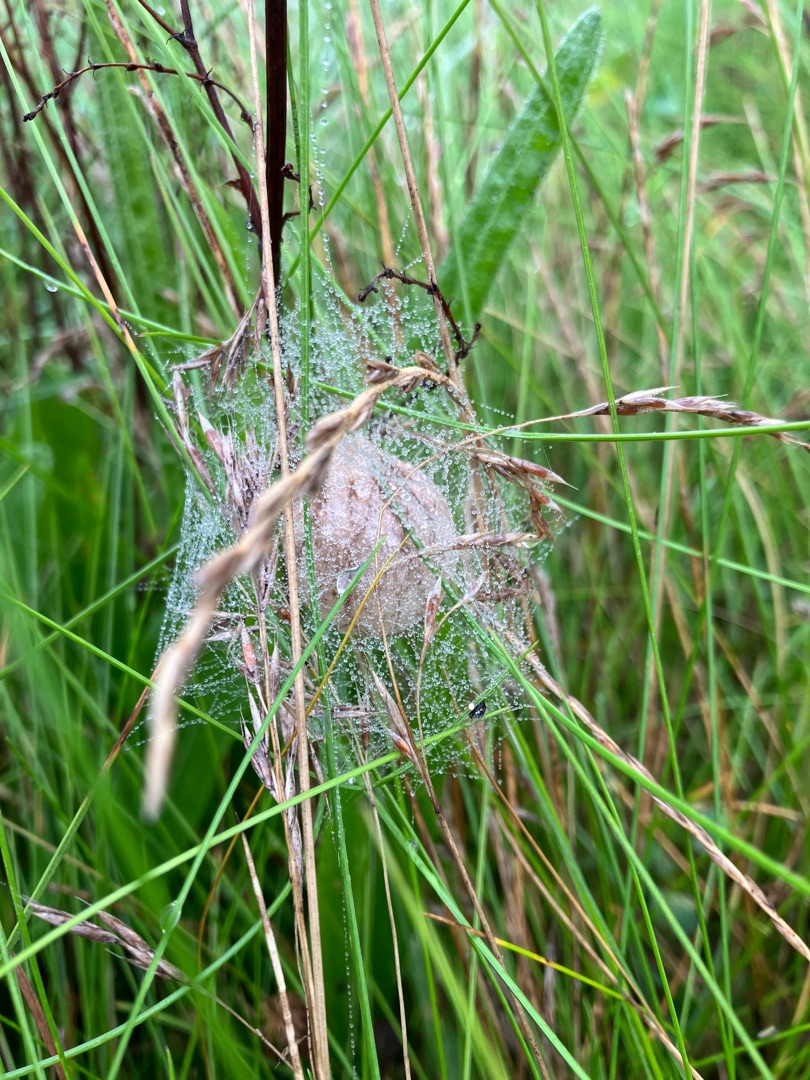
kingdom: Animalia
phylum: Arthropoda
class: Arachnida
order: Araneae
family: Araneidae
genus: Argiope
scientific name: Argiope bruennichi
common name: Hvepseedderkop
